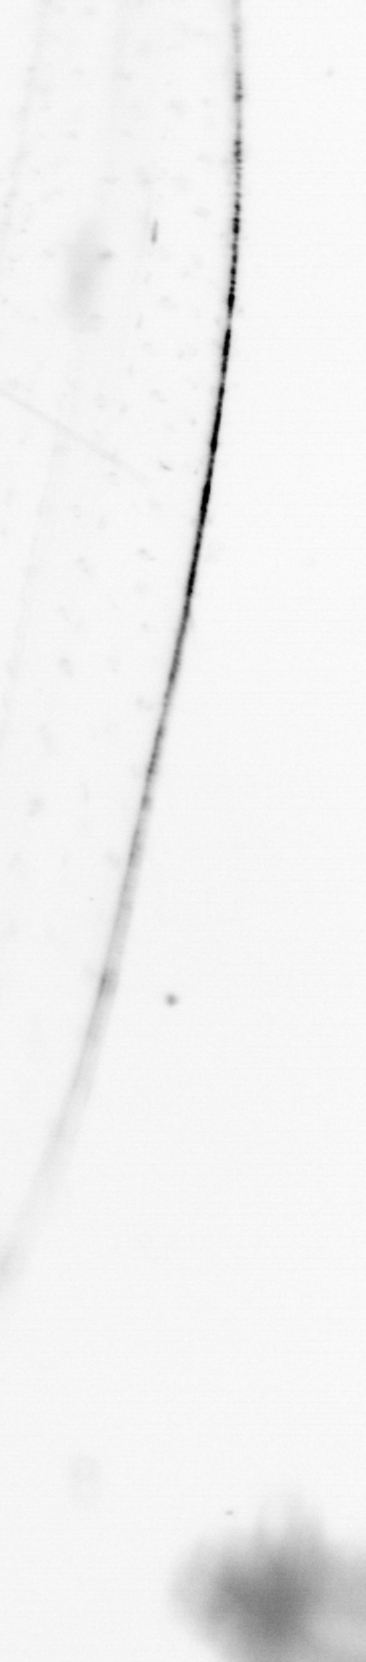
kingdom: Animalia
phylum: Chaetognatha
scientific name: Chaetognatha
